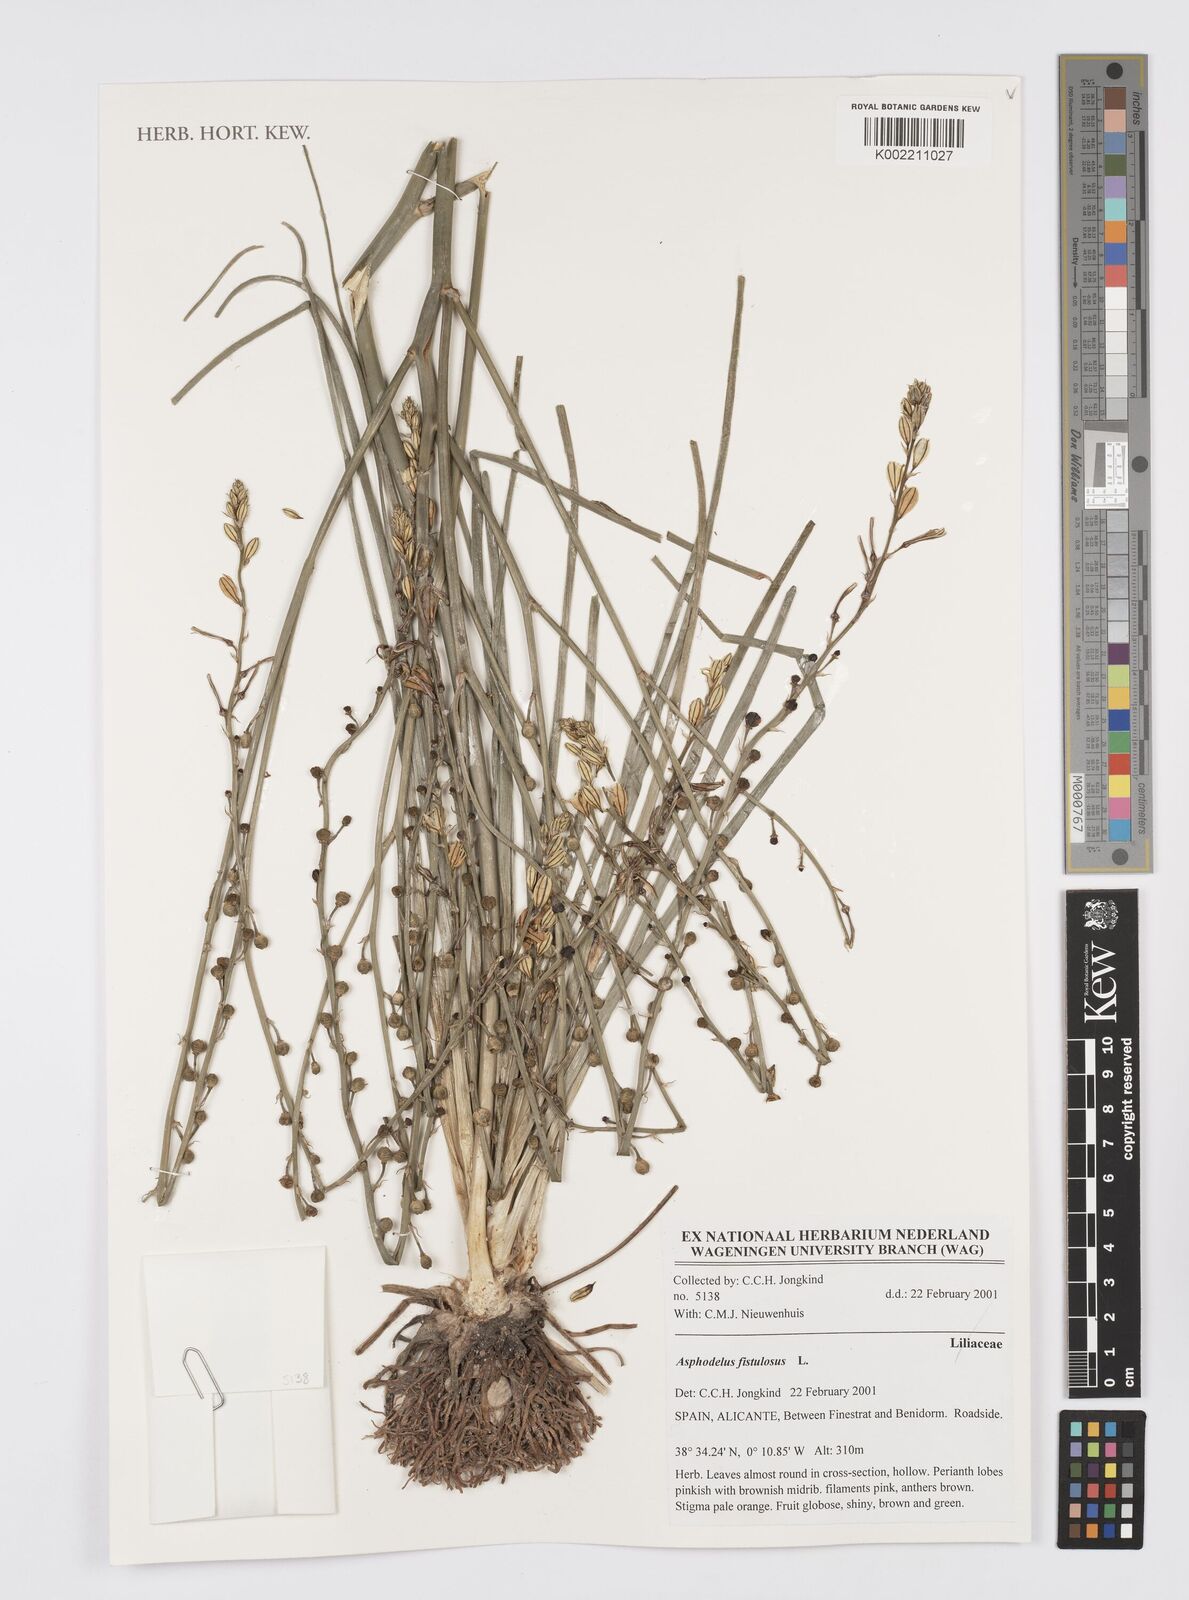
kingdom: Plantae
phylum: Tracheophyta
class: Liliopsida
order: Asparagales
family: Asphodelaceae
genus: Asphodelus
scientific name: Asphodelus fistulosus
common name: Onionweed
